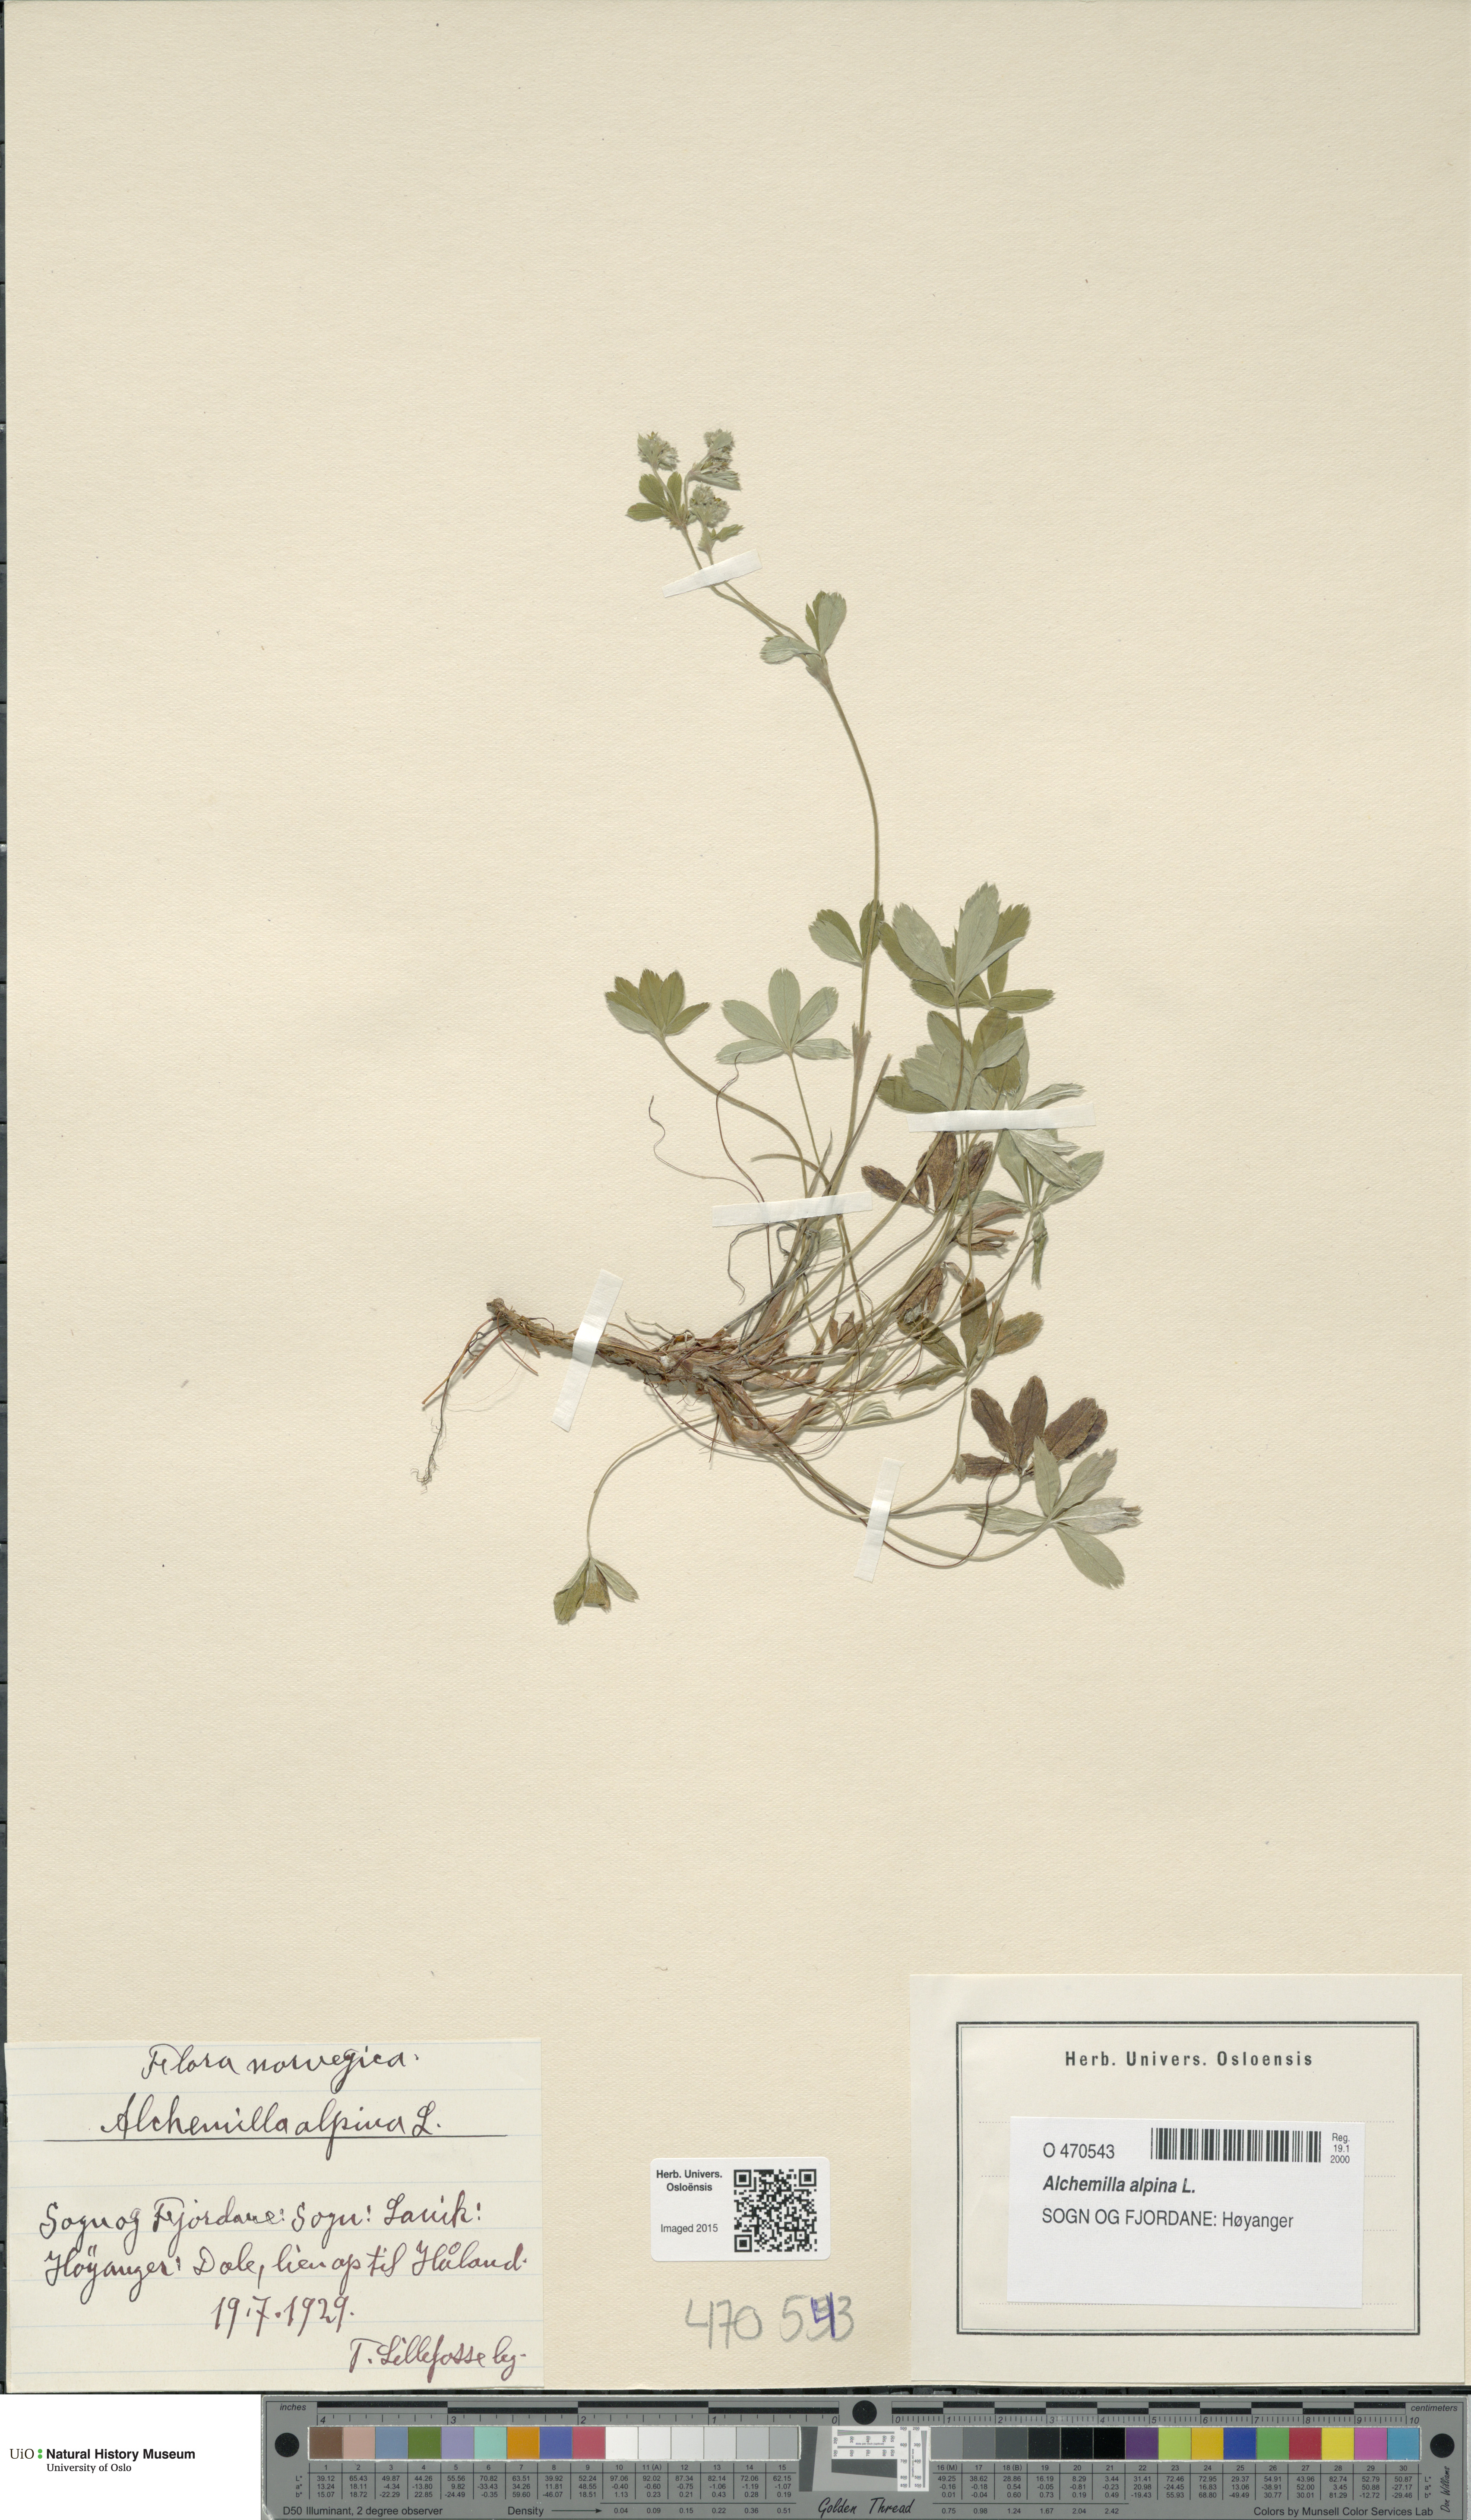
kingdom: Plantae
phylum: Tracheophyta
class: Magnoliopsida
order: Rosales
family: Rosaceae
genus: Alchemilla
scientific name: Alchemilla alpina
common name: Alpine lady's-mantle
